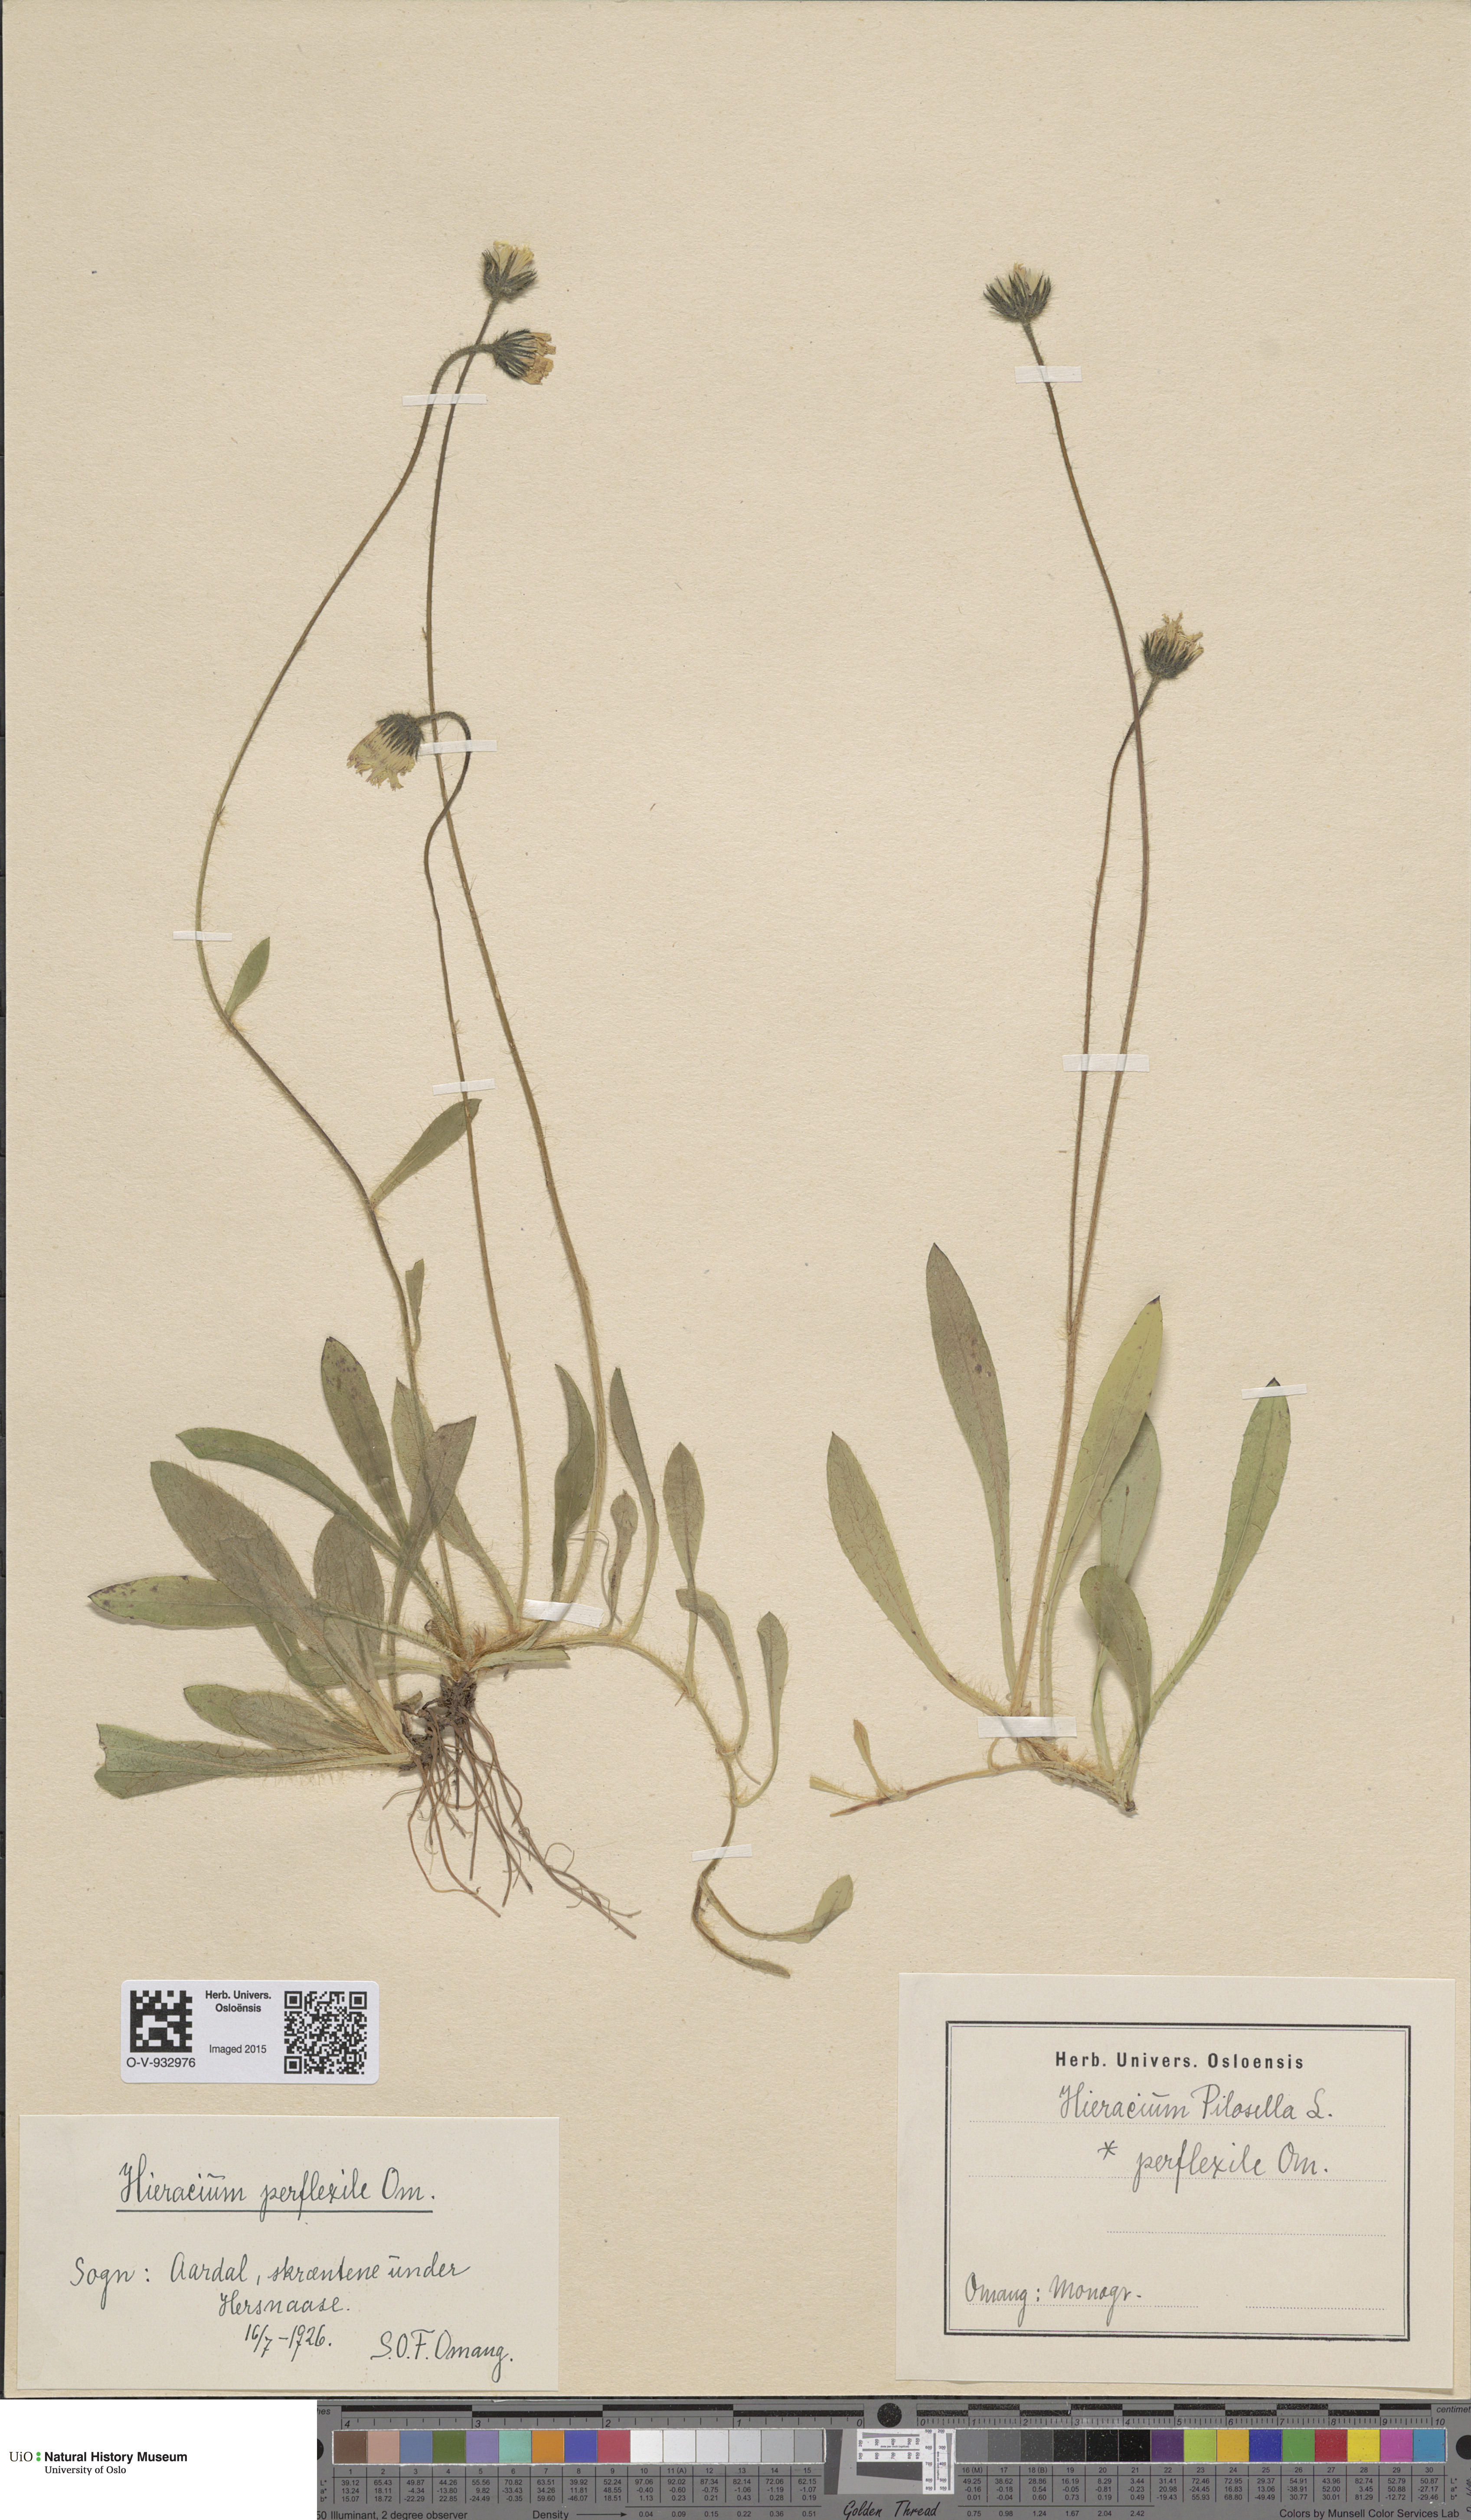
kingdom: Plantae
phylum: Tracheophyta
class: Magnoliopsida
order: Asterales
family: Asteraceae
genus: Pilosella
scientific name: Pilosella officinarum
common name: Mouse-ear hawkweed
